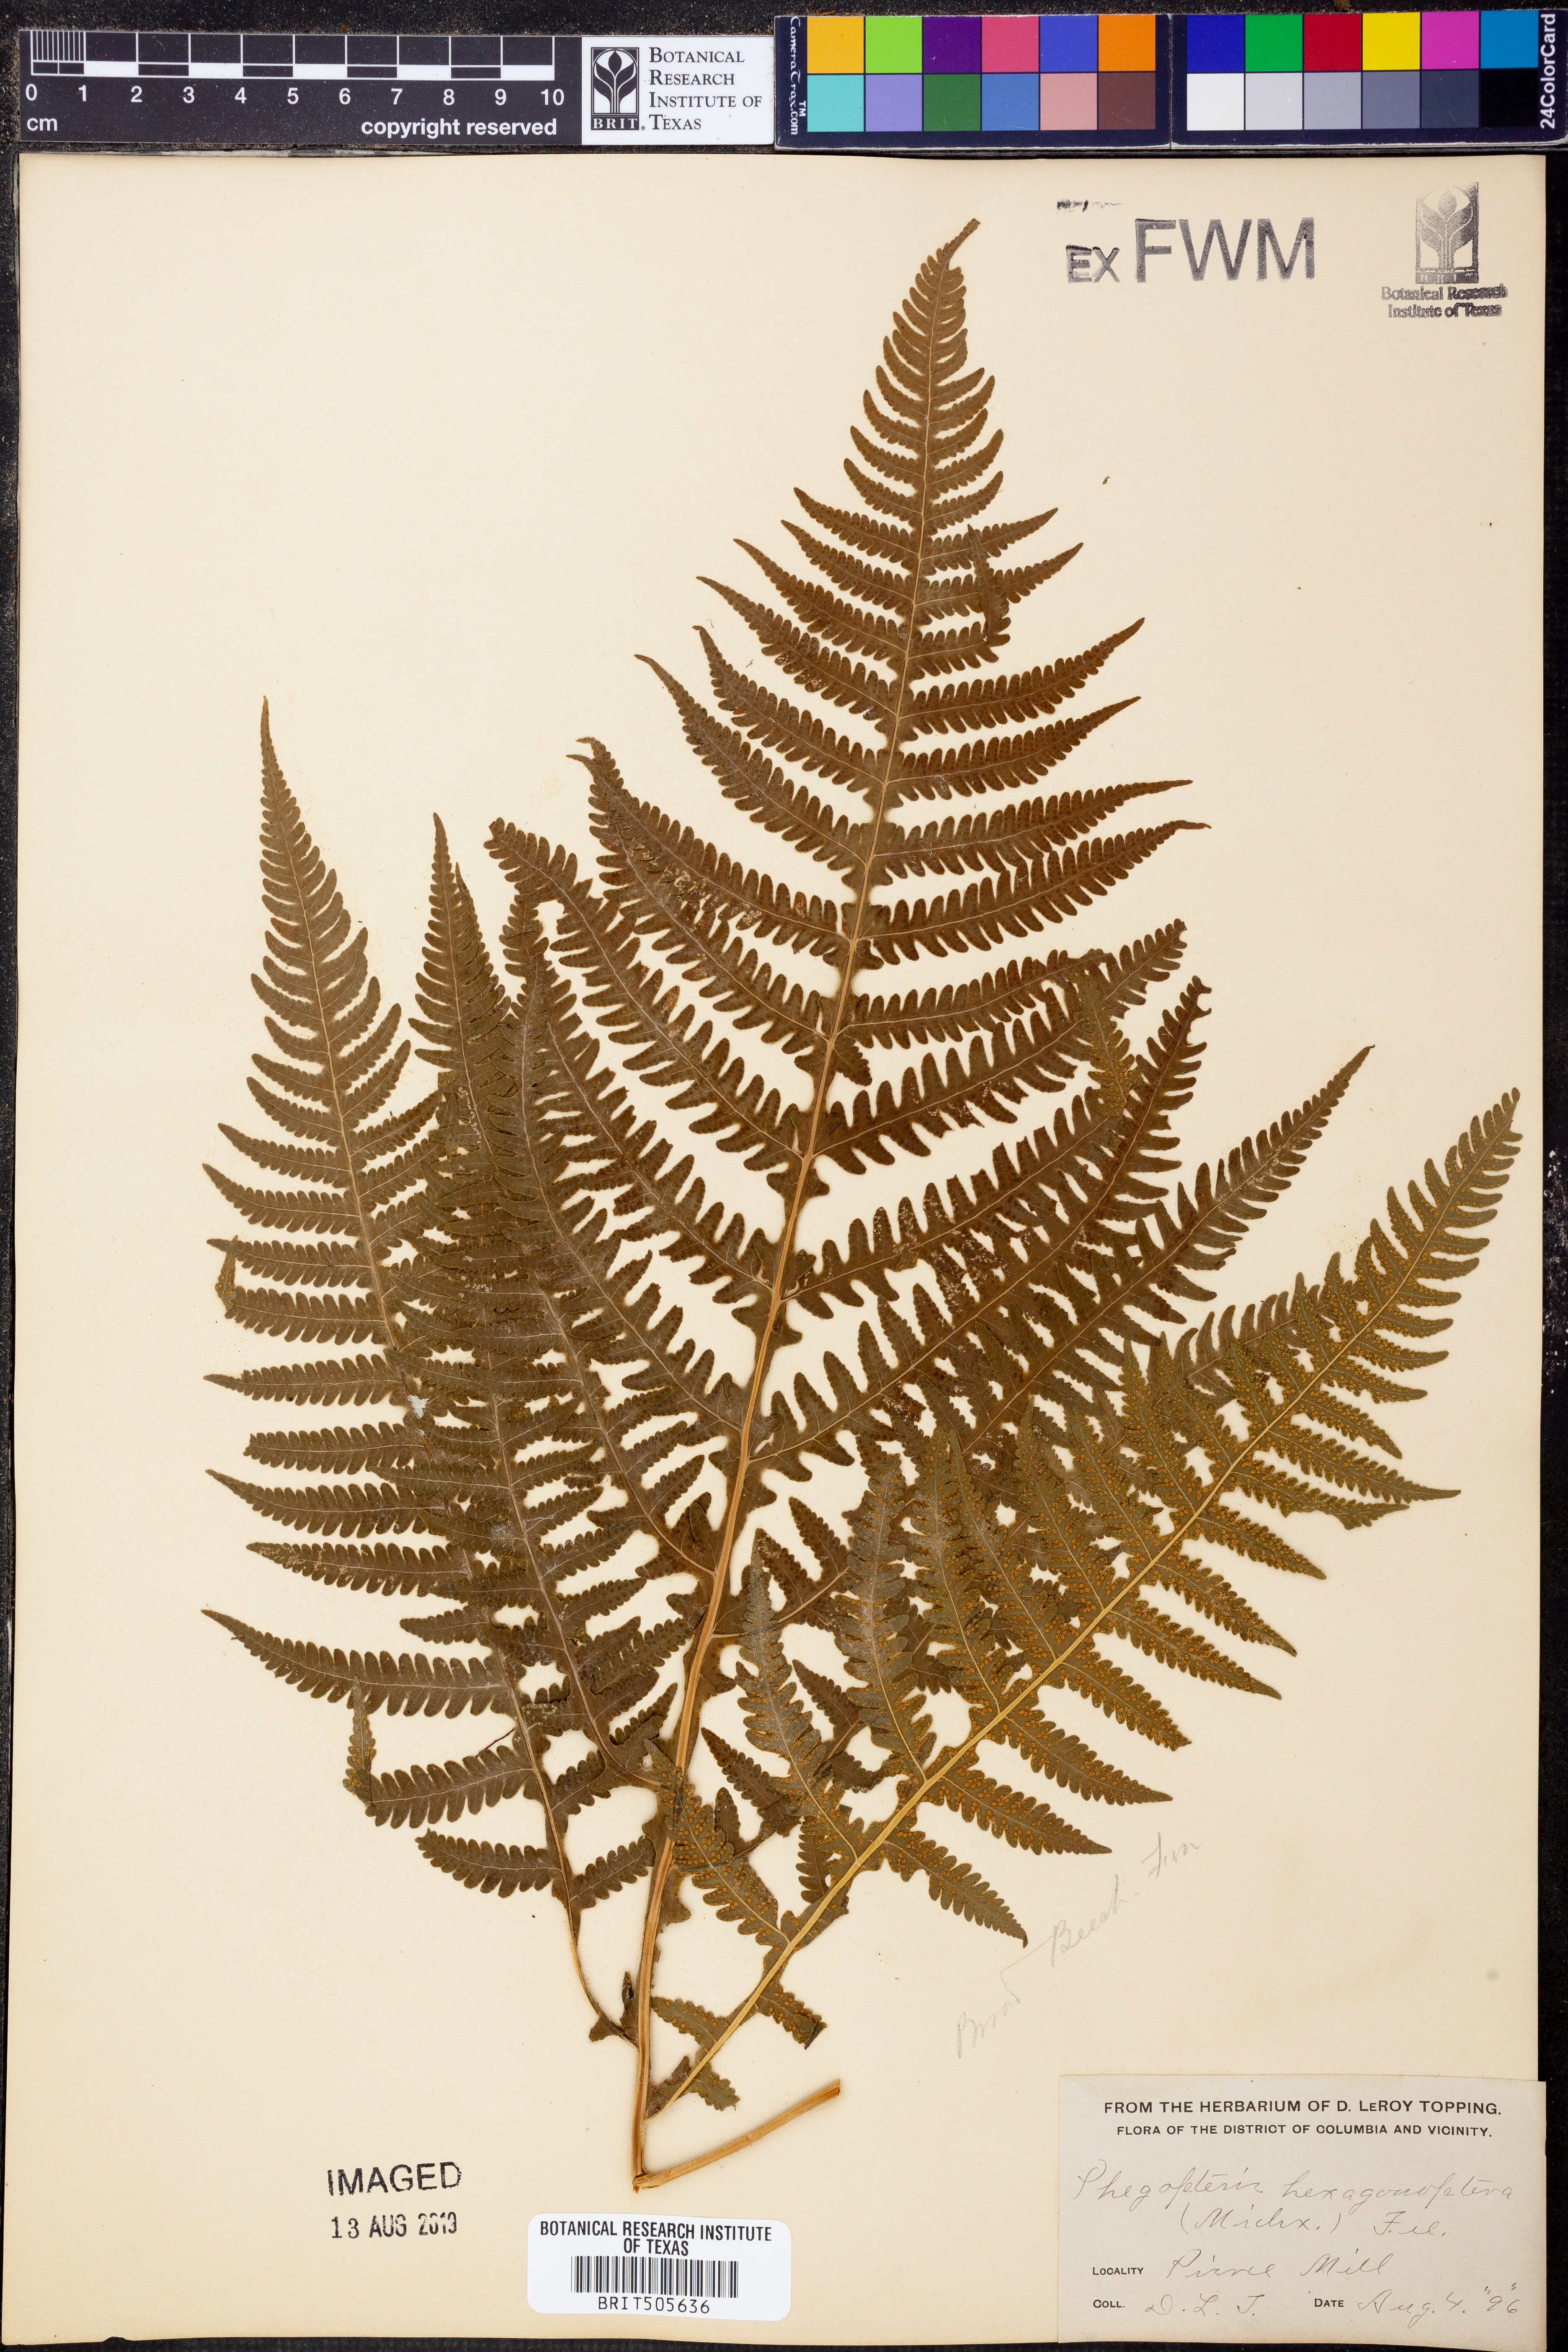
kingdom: Plantae
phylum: Tracheophyta
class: Polypodiopsida
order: Polypodiales
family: Thelypteridaceae
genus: Phegopteris
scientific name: Phegopteris hexagonoptera
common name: Broad beech fern
